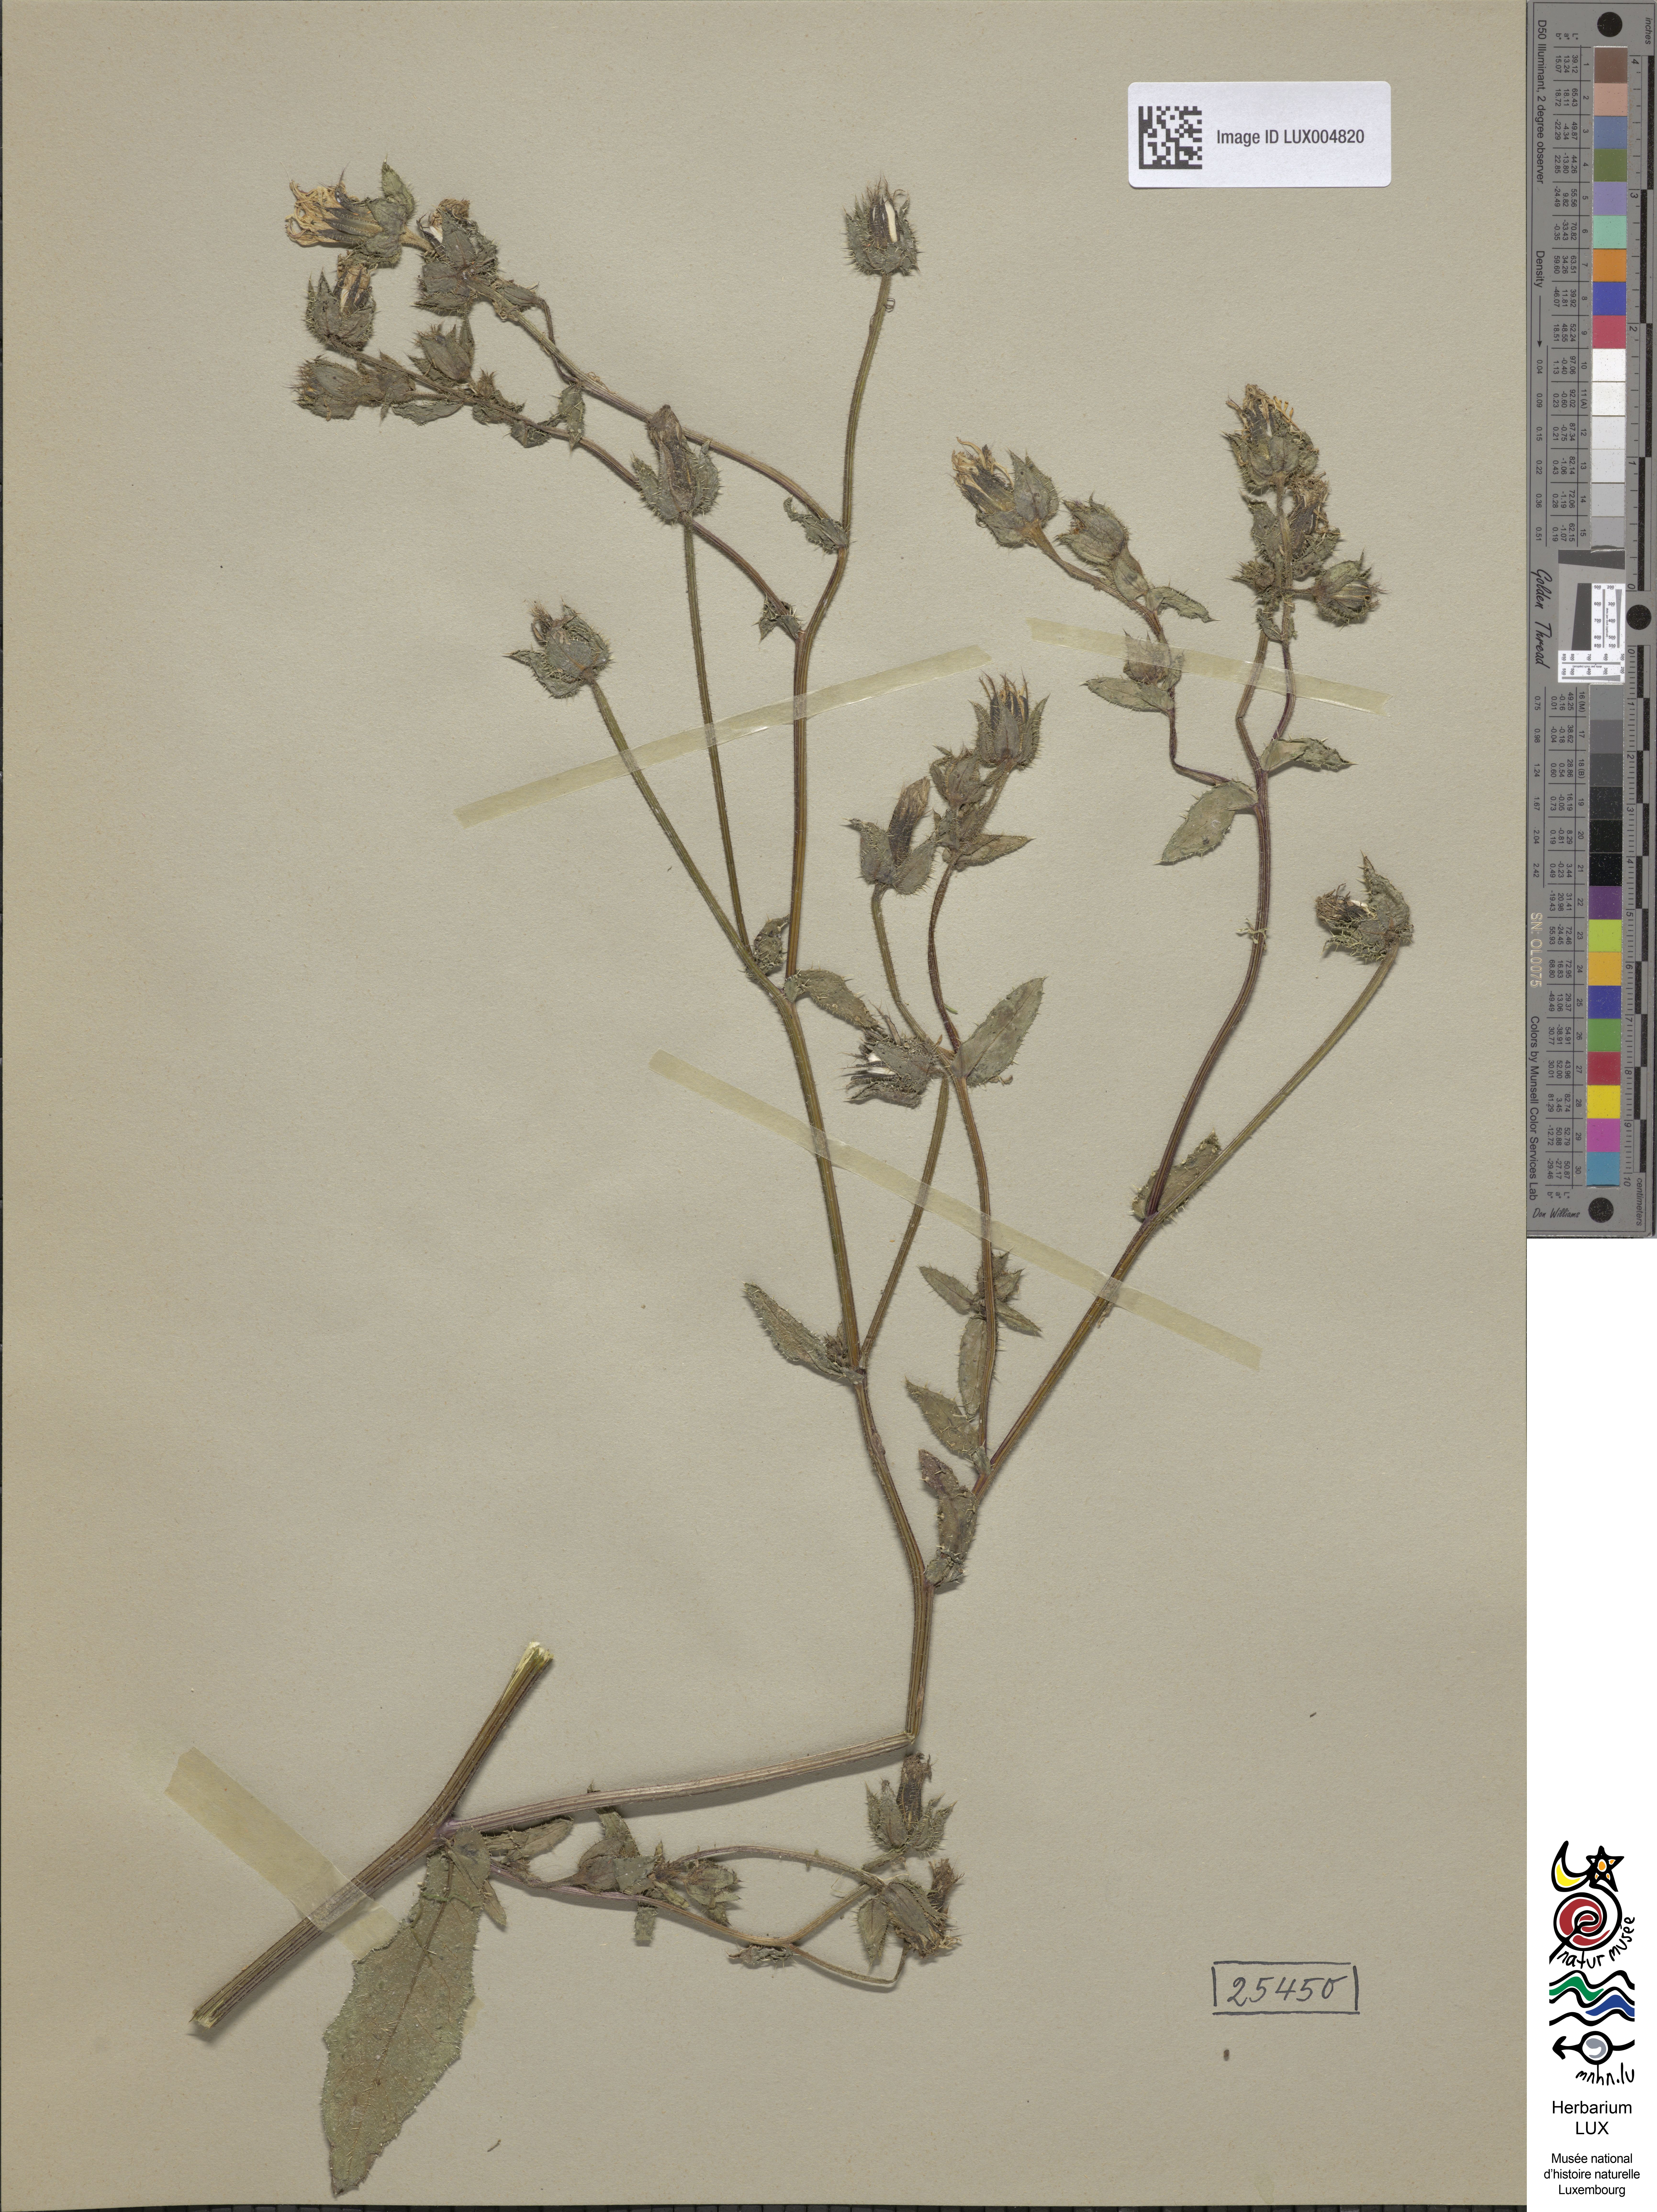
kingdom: Plantae
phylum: Tracheophyta
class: Magnoliopsida
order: Asterales
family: Asteraceae
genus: Helminthotheca
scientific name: Helminthotheca echioides
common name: Ox-tongue
